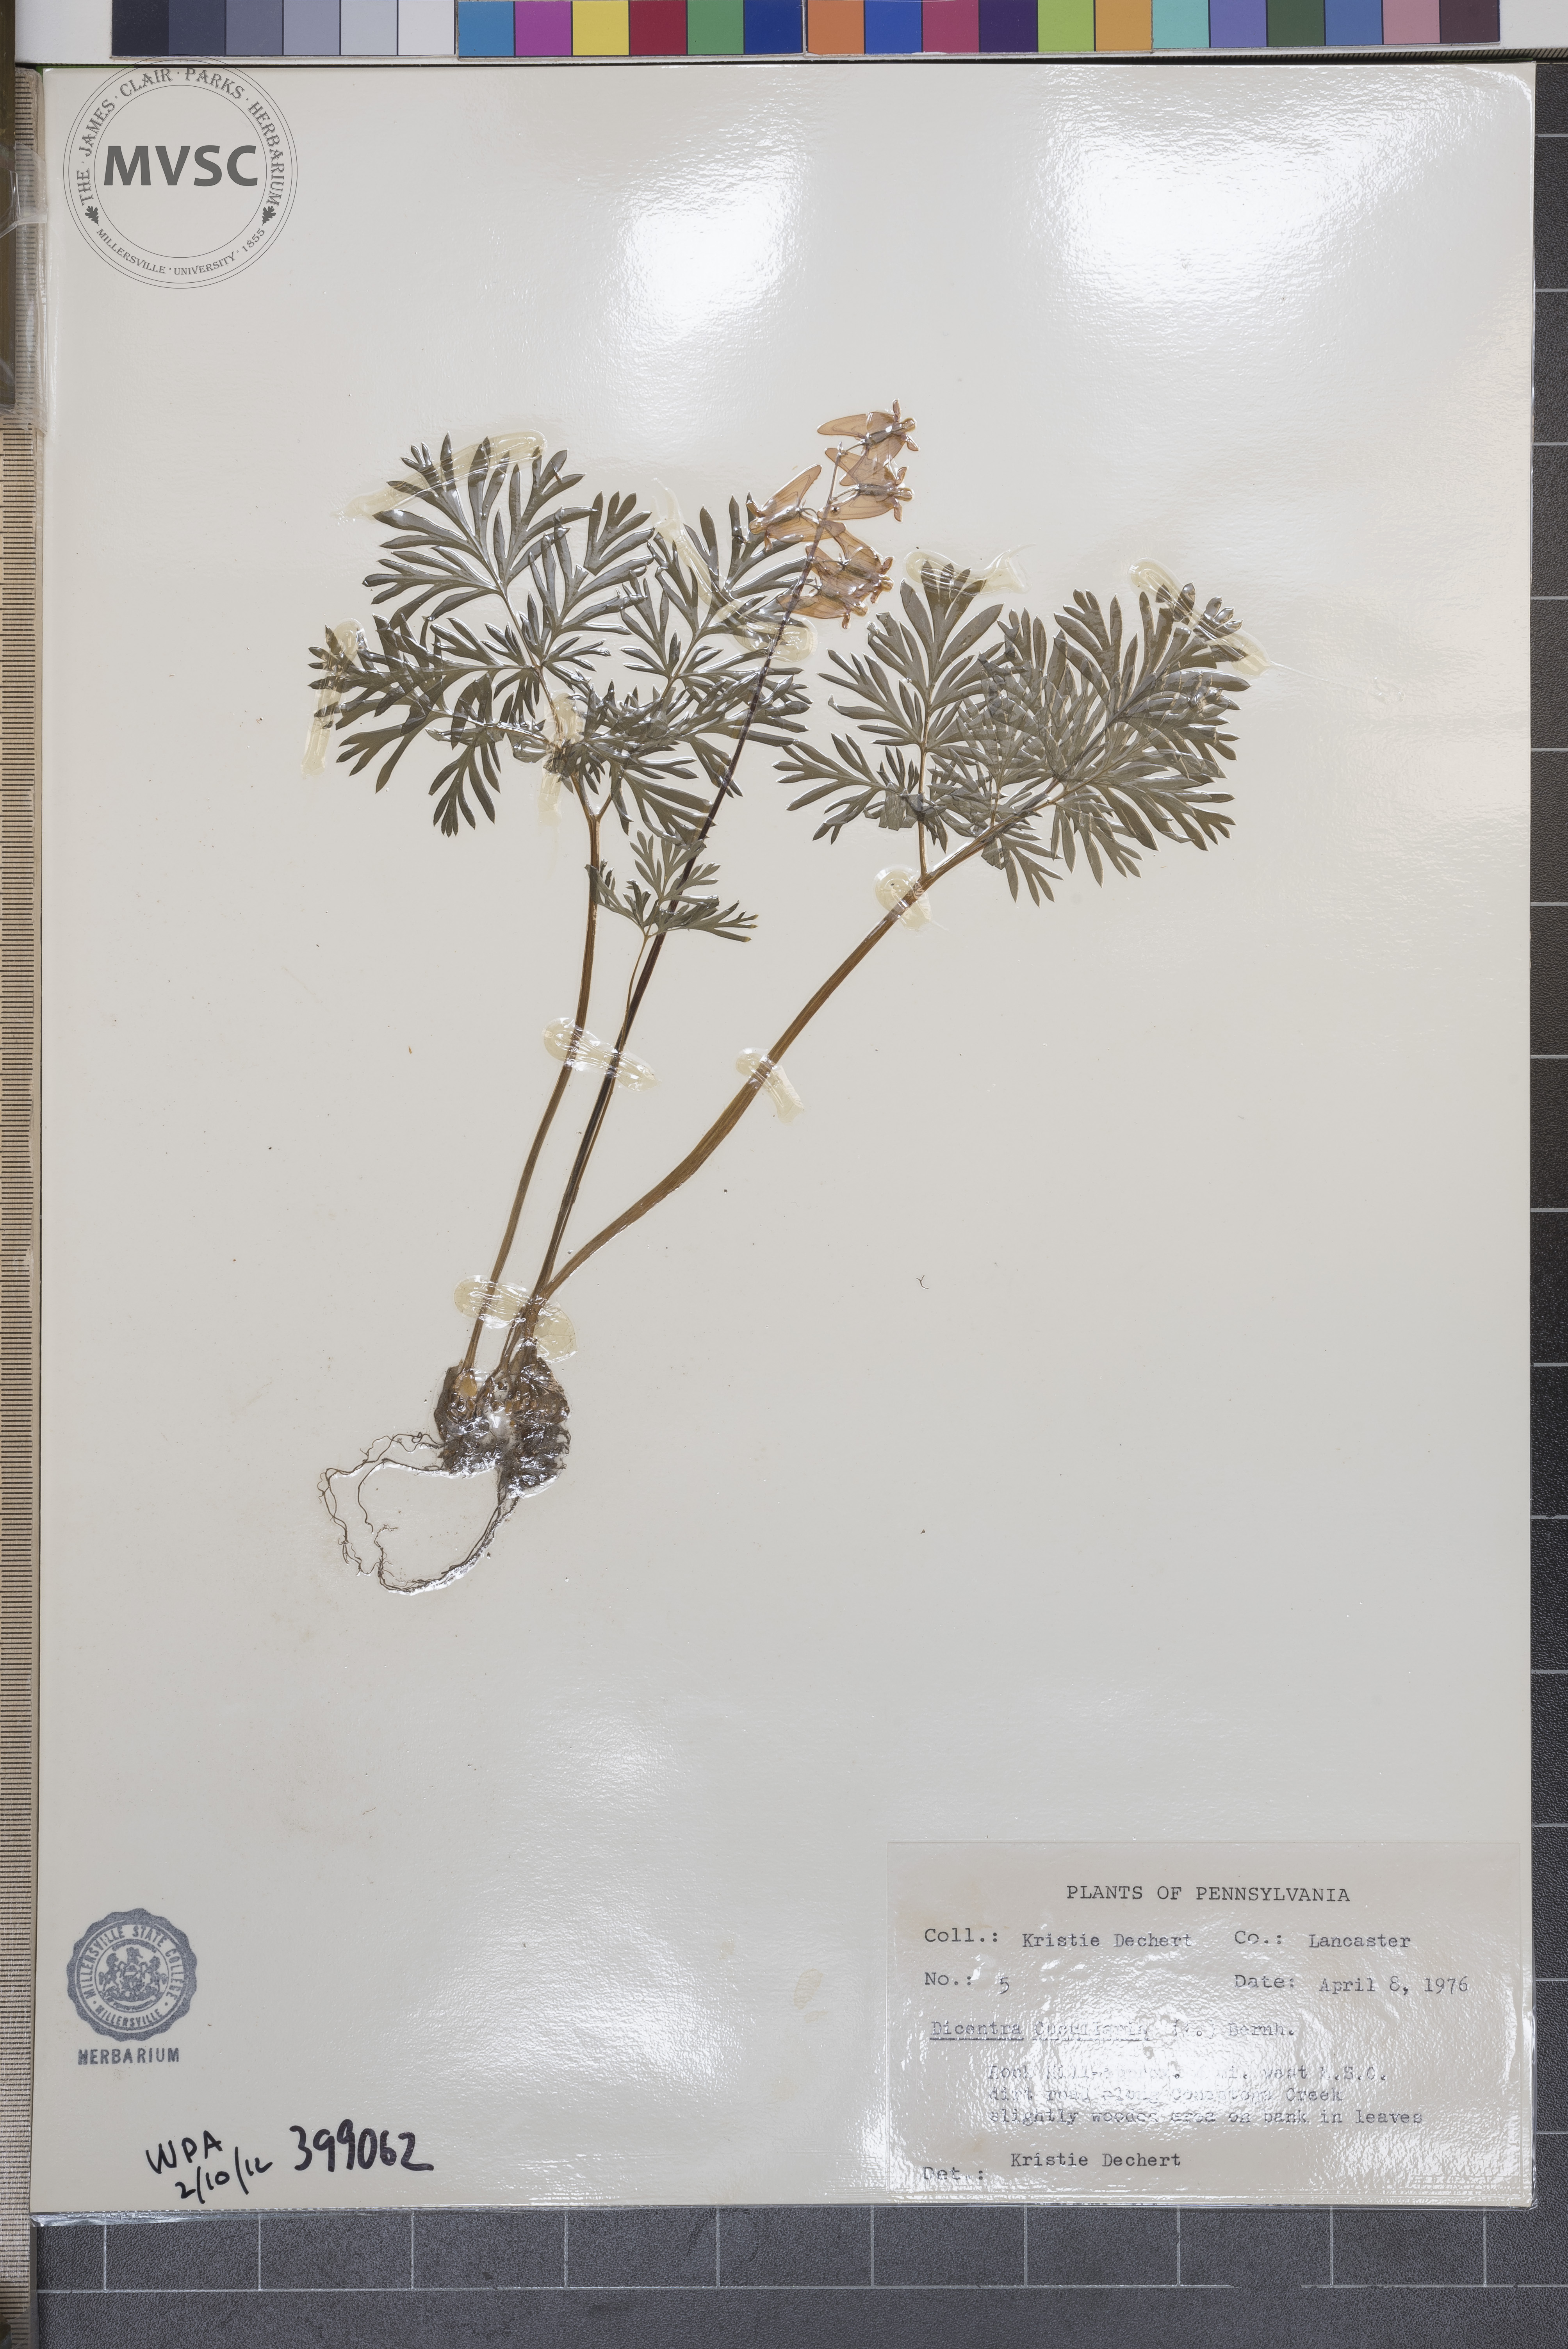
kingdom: Plantae
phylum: Tracheophyta
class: Magnoliopsida
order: Ranunculales
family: Papaveraceae
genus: Dicentra
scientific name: Dicentra cucullaria
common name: Dutchman's-breeches
